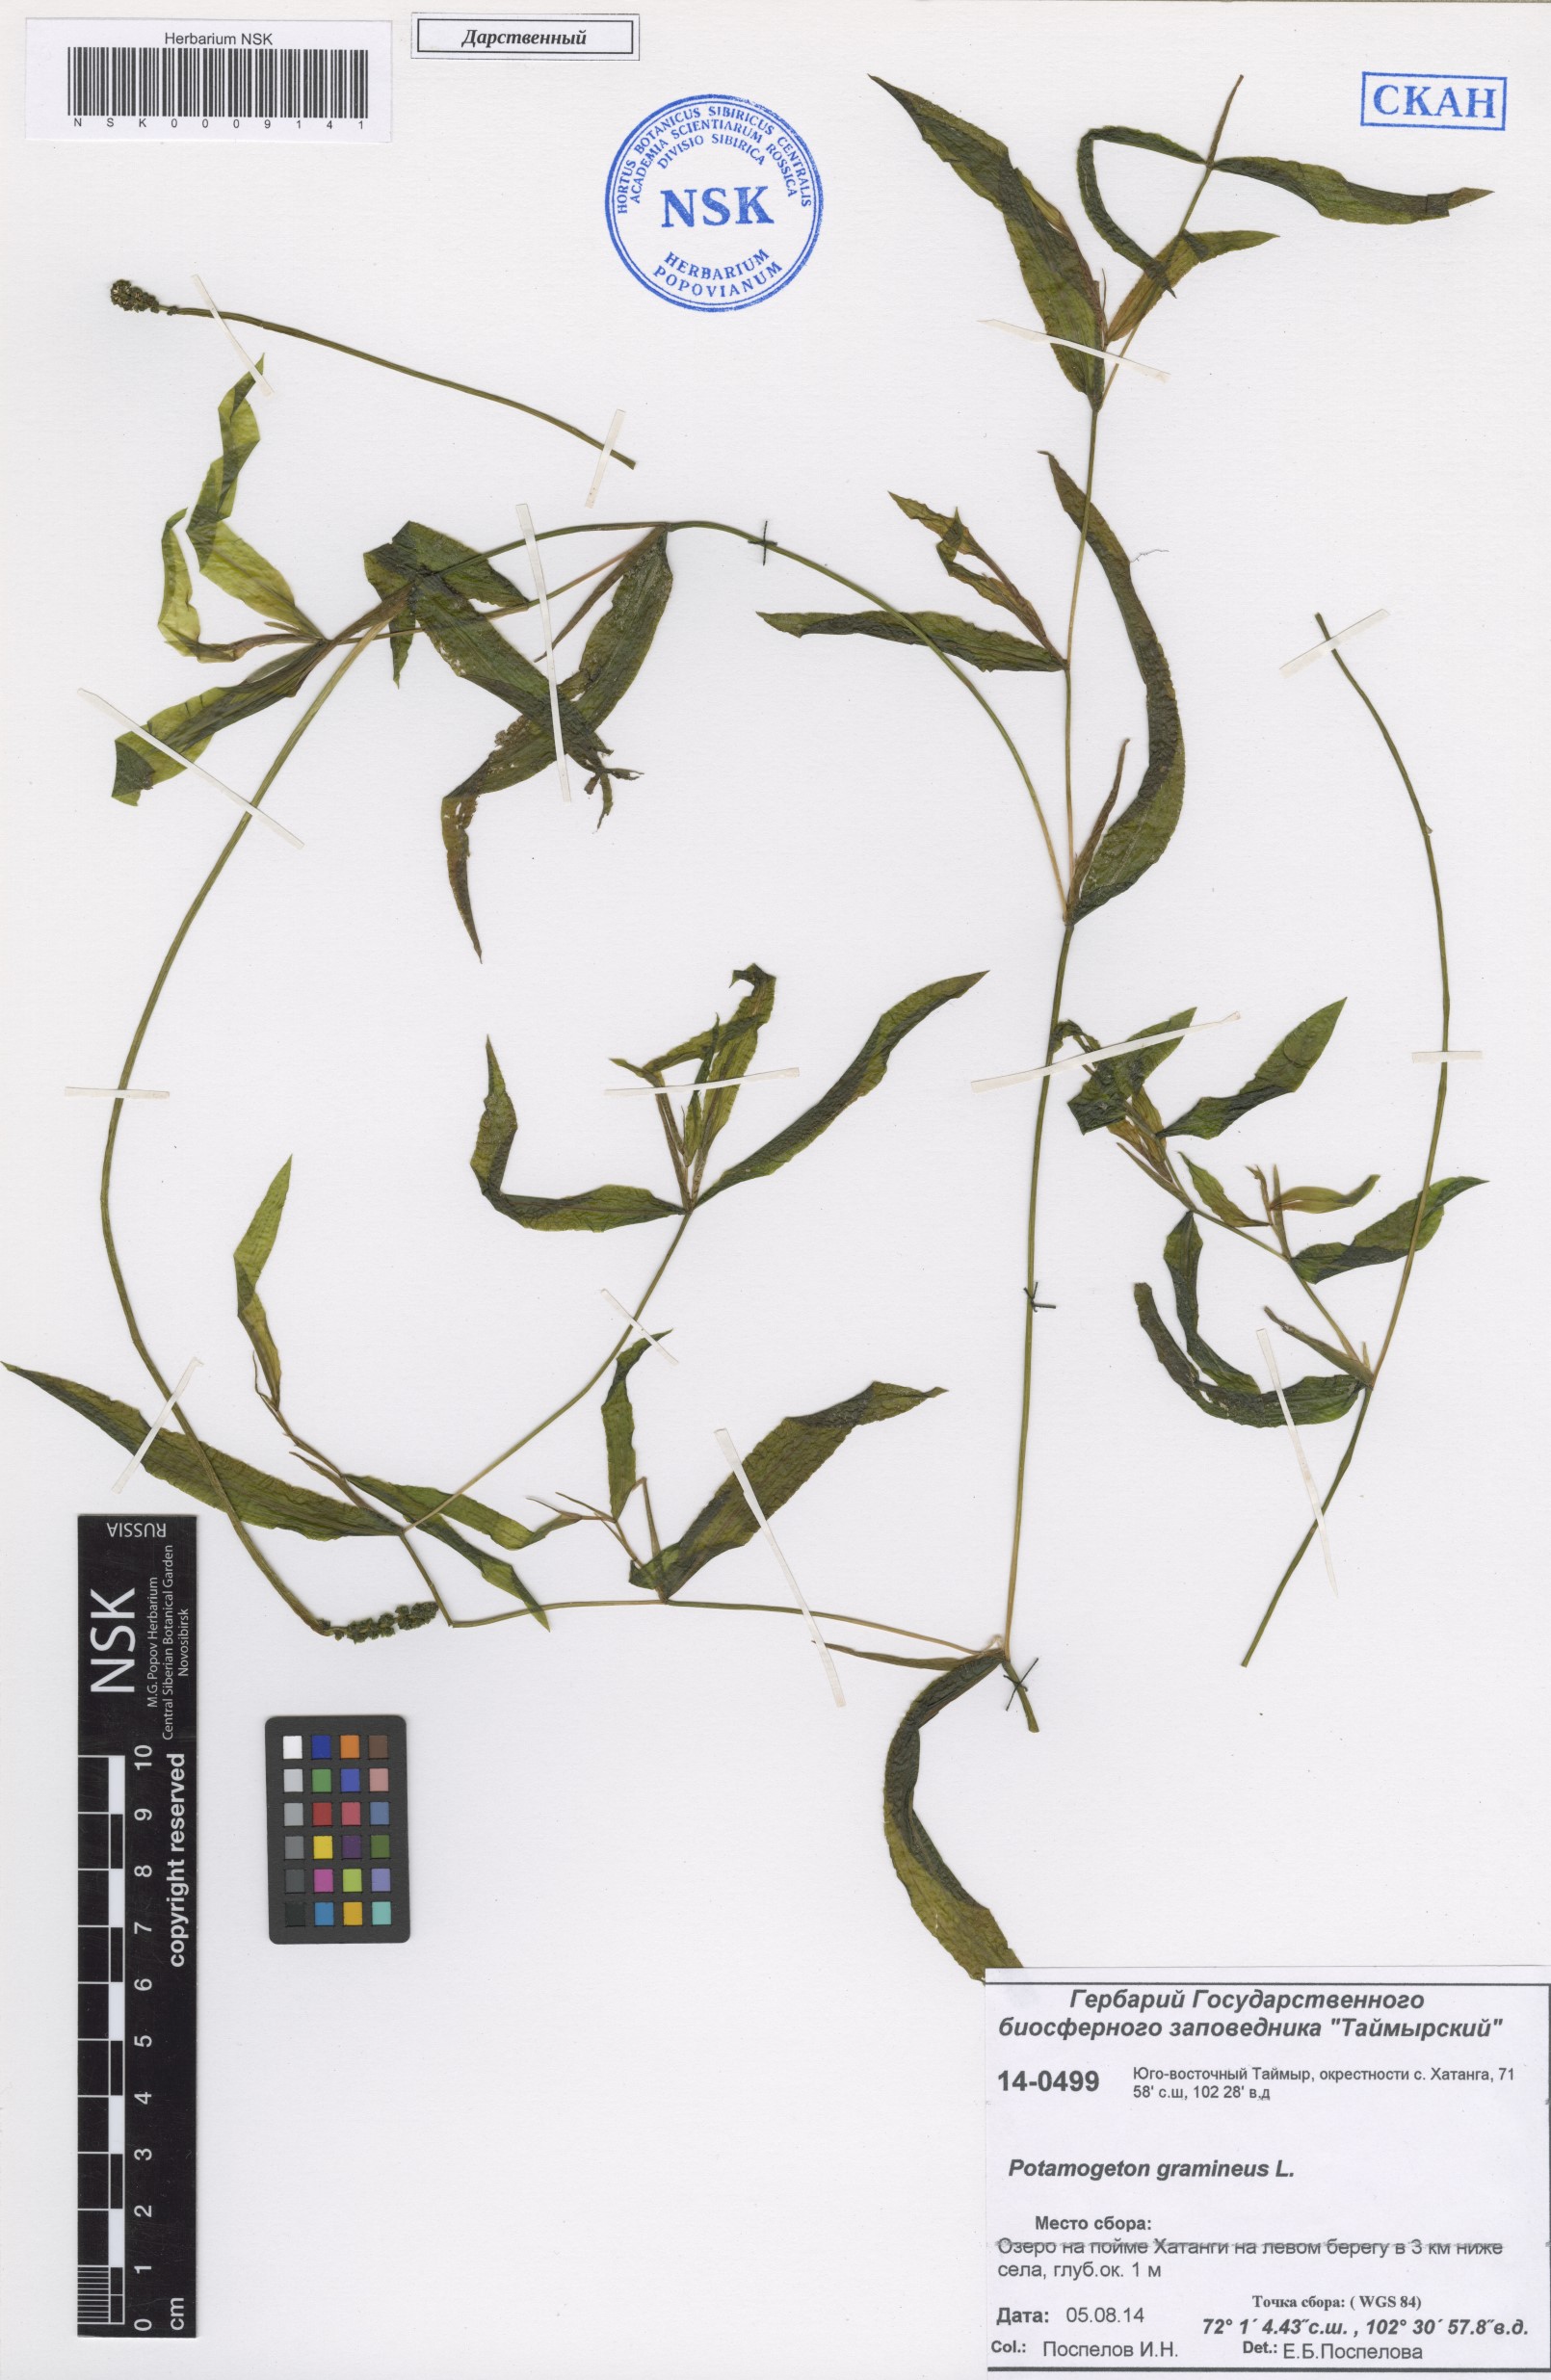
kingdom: Plantae
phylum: Tracheophyta
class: Liliopsida
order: Alismatales
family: Potamogetonaceae
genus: Potamogeton
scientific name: Potamogeton gramineus
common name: Various-leaved pondweed
